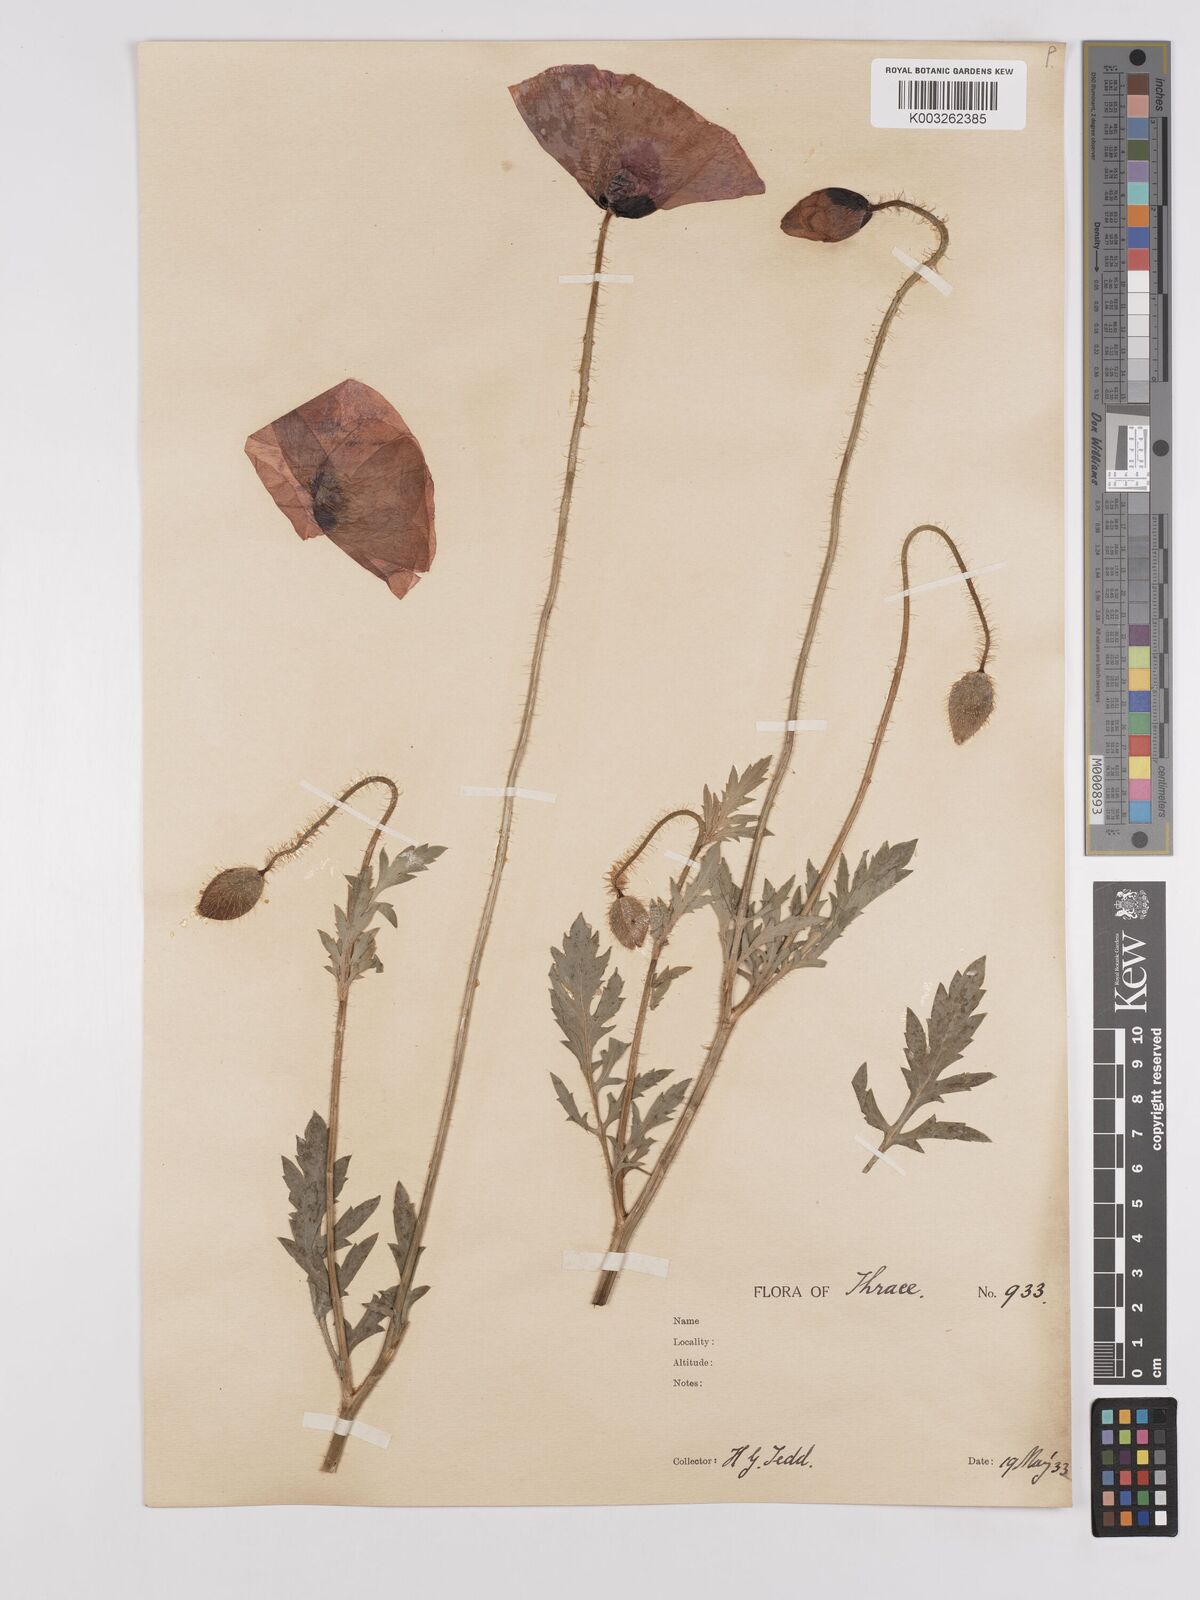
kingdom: Plantae
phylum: Tracheophyta
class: Magnoliopsida
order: Ranunculales
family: Papaveraceae
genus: Papaver
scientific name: Papaver rhoeas
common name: Corn poppy
